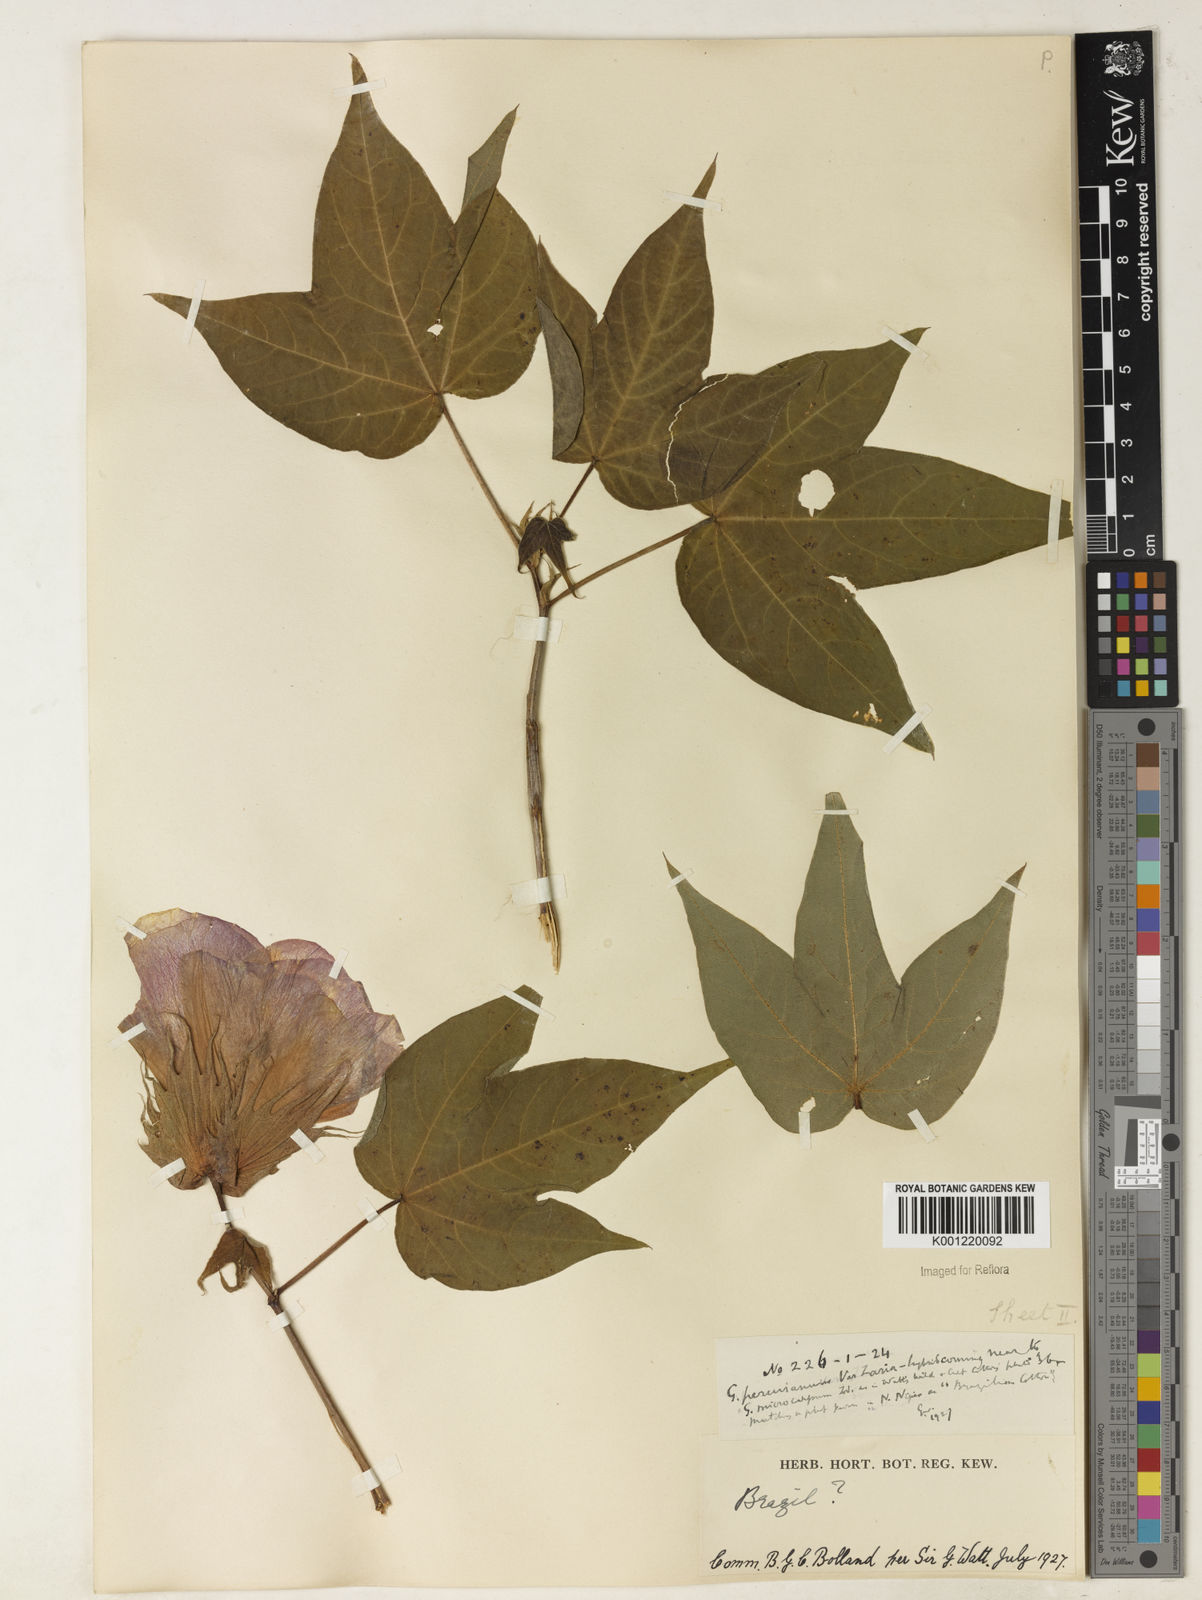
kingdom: Plantae
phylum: Tracheophyta
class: Magnoliopsida
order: Malvales
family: Malvaceae
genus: Gossypium
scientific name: Gossypium barbadense
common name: Creole cotton
